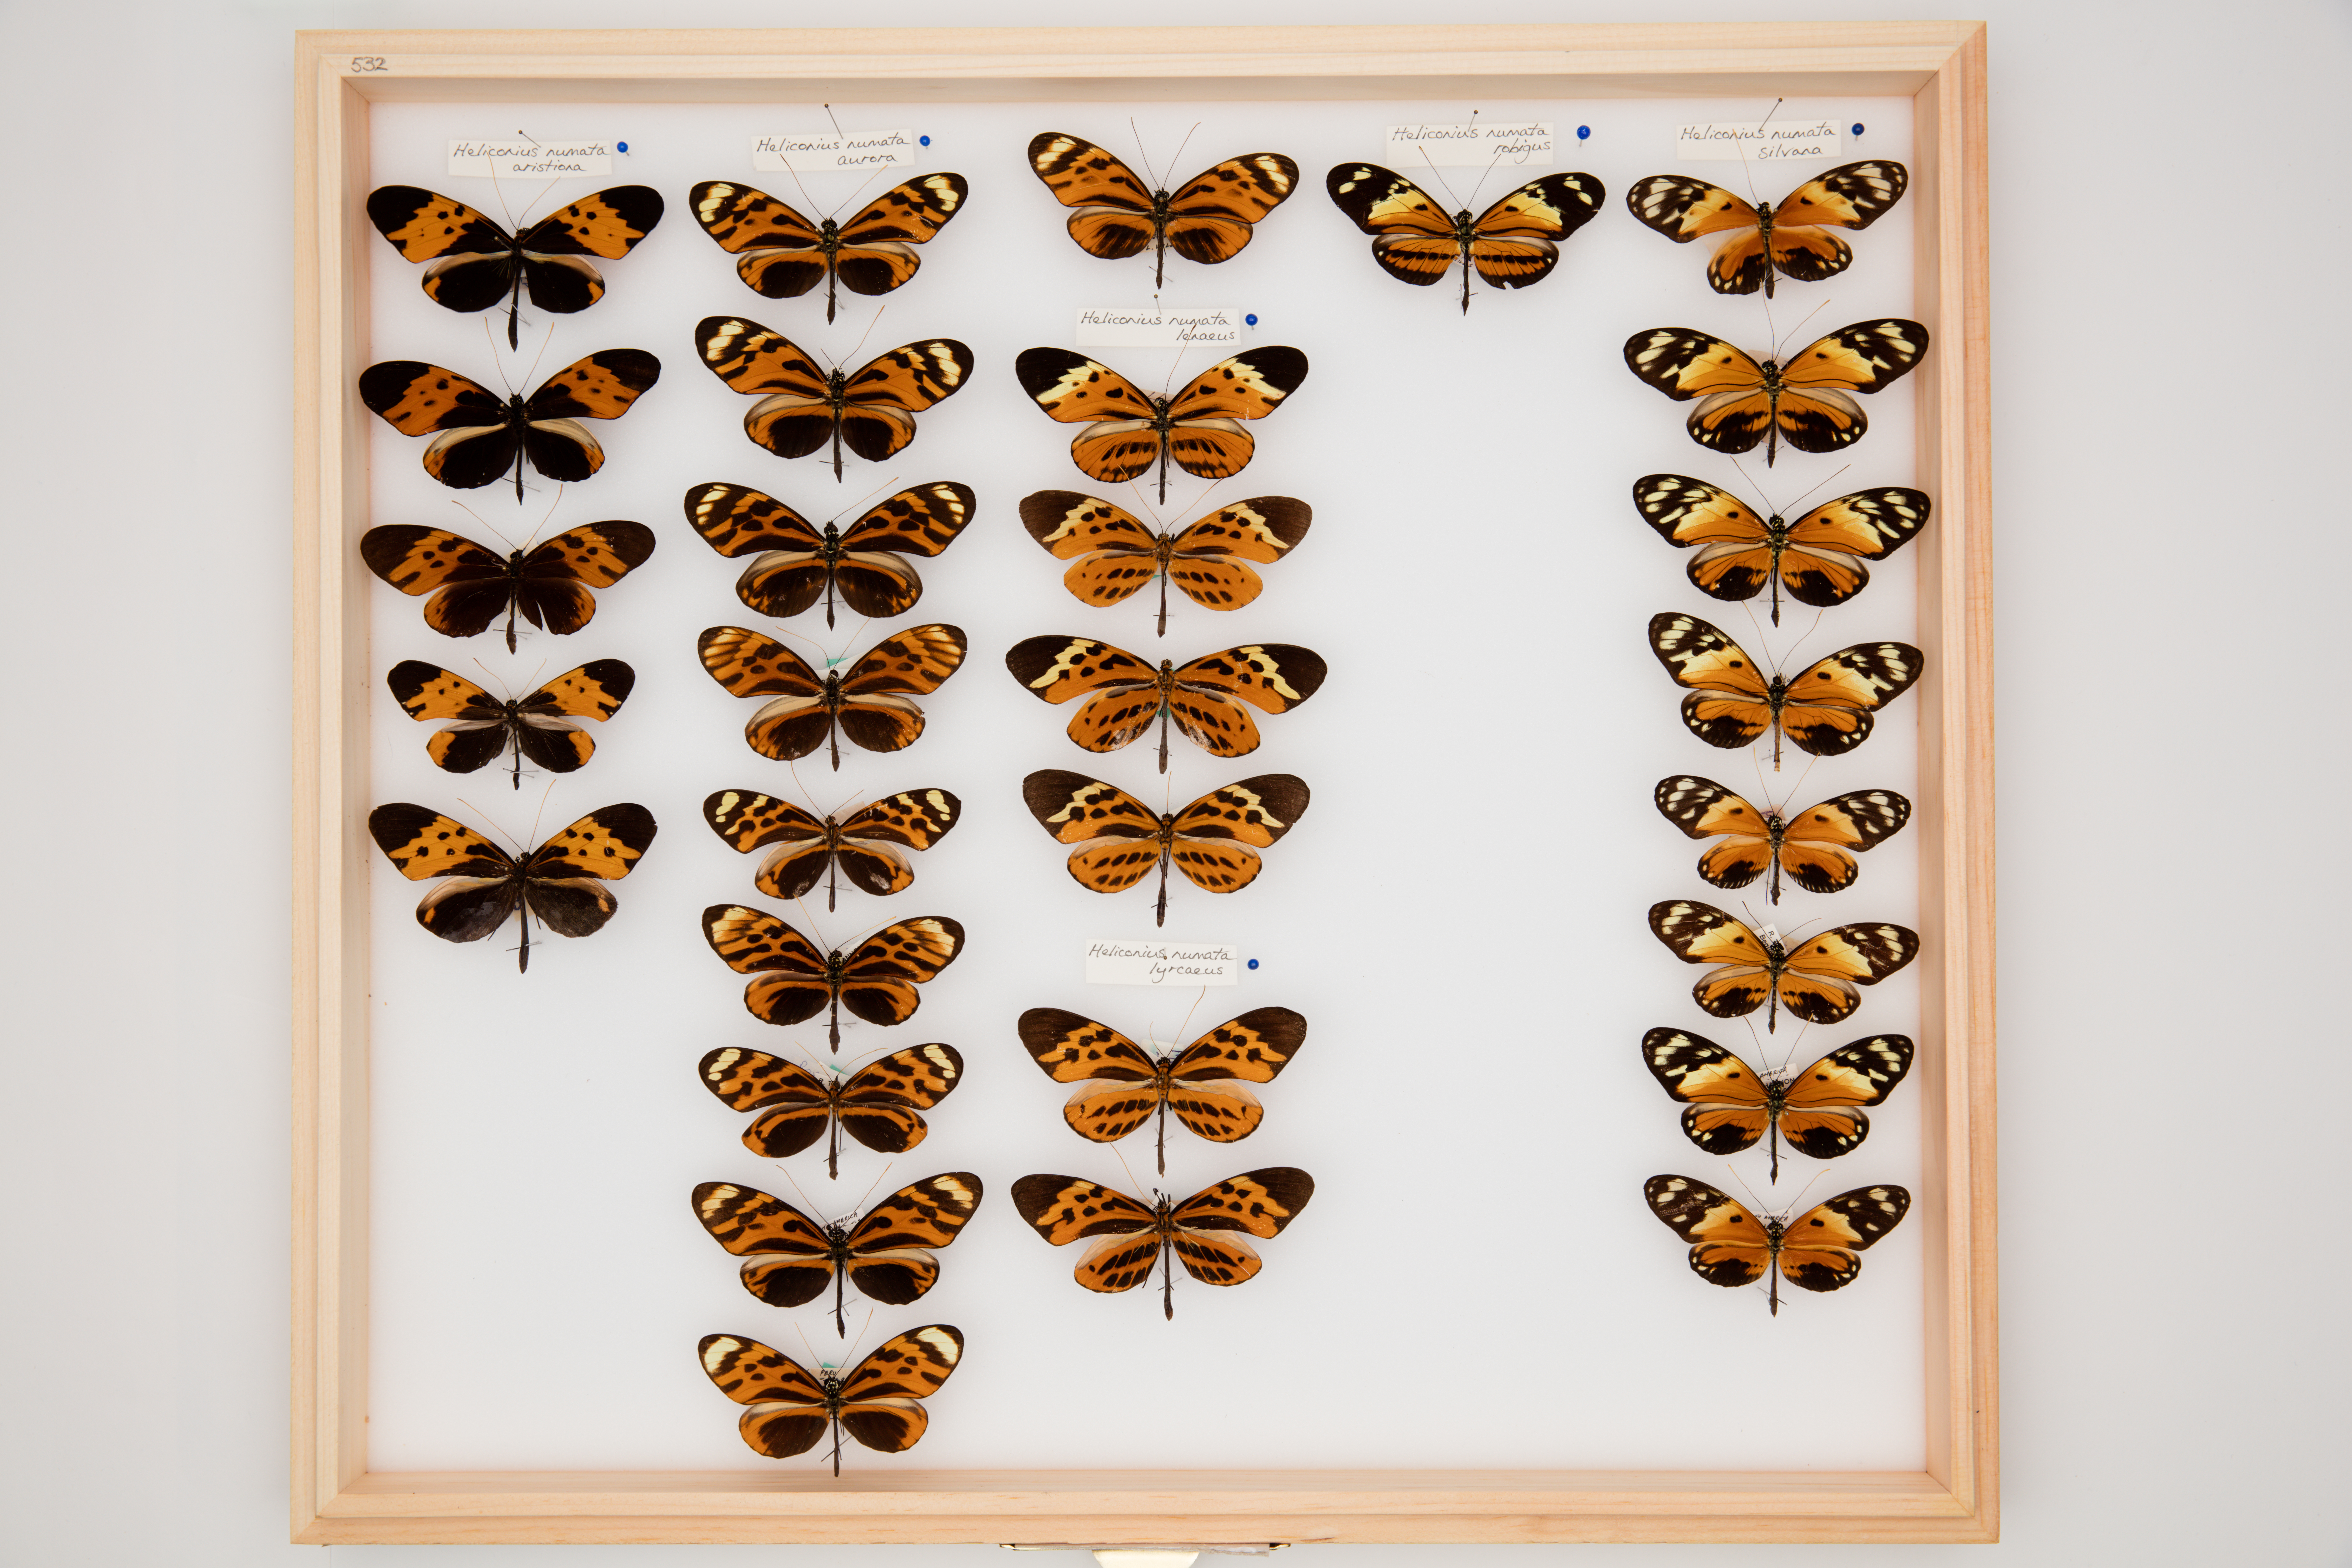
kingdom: Animalia
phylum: Arthropoda
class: Insecta
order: Lepidoptera
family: Nymphalidae
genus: Heliconius
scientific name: Heliconius numatus
